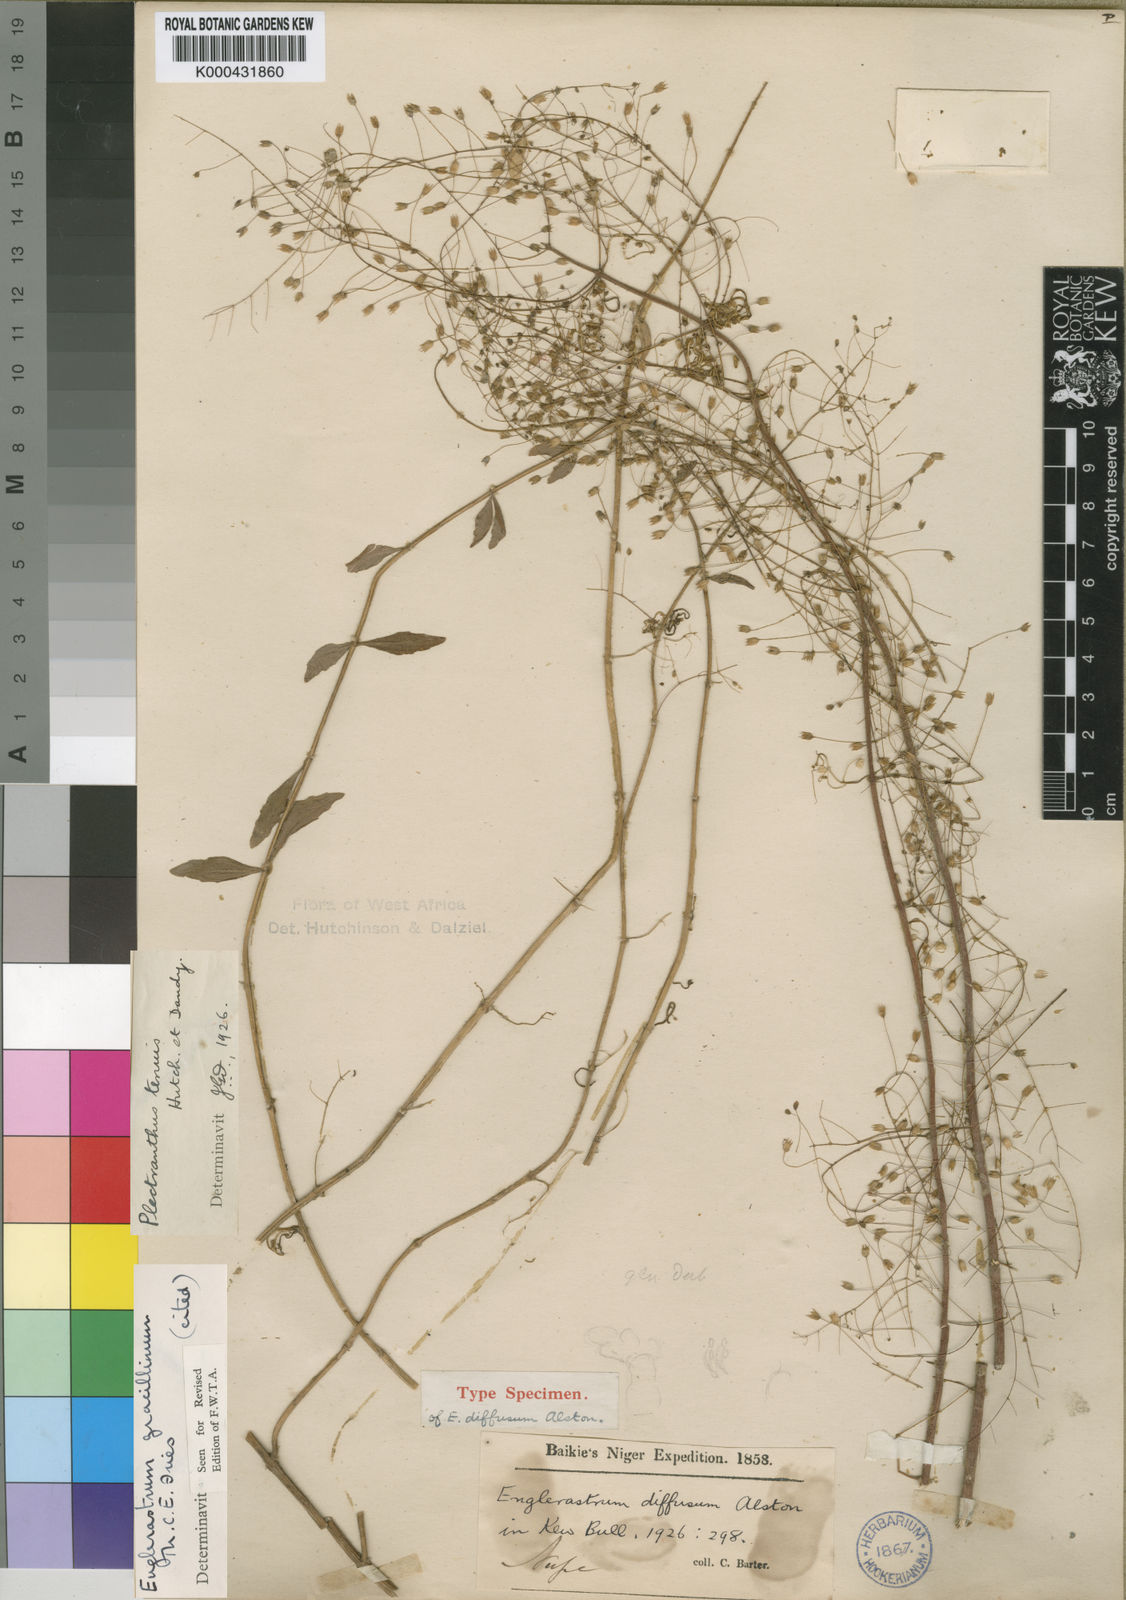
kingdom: Plantae
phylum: Tracheophyta
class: Magnoliopsida
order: Lamiales
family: Lamiaceae
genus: Coleus
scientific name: Coleus gracillimus
